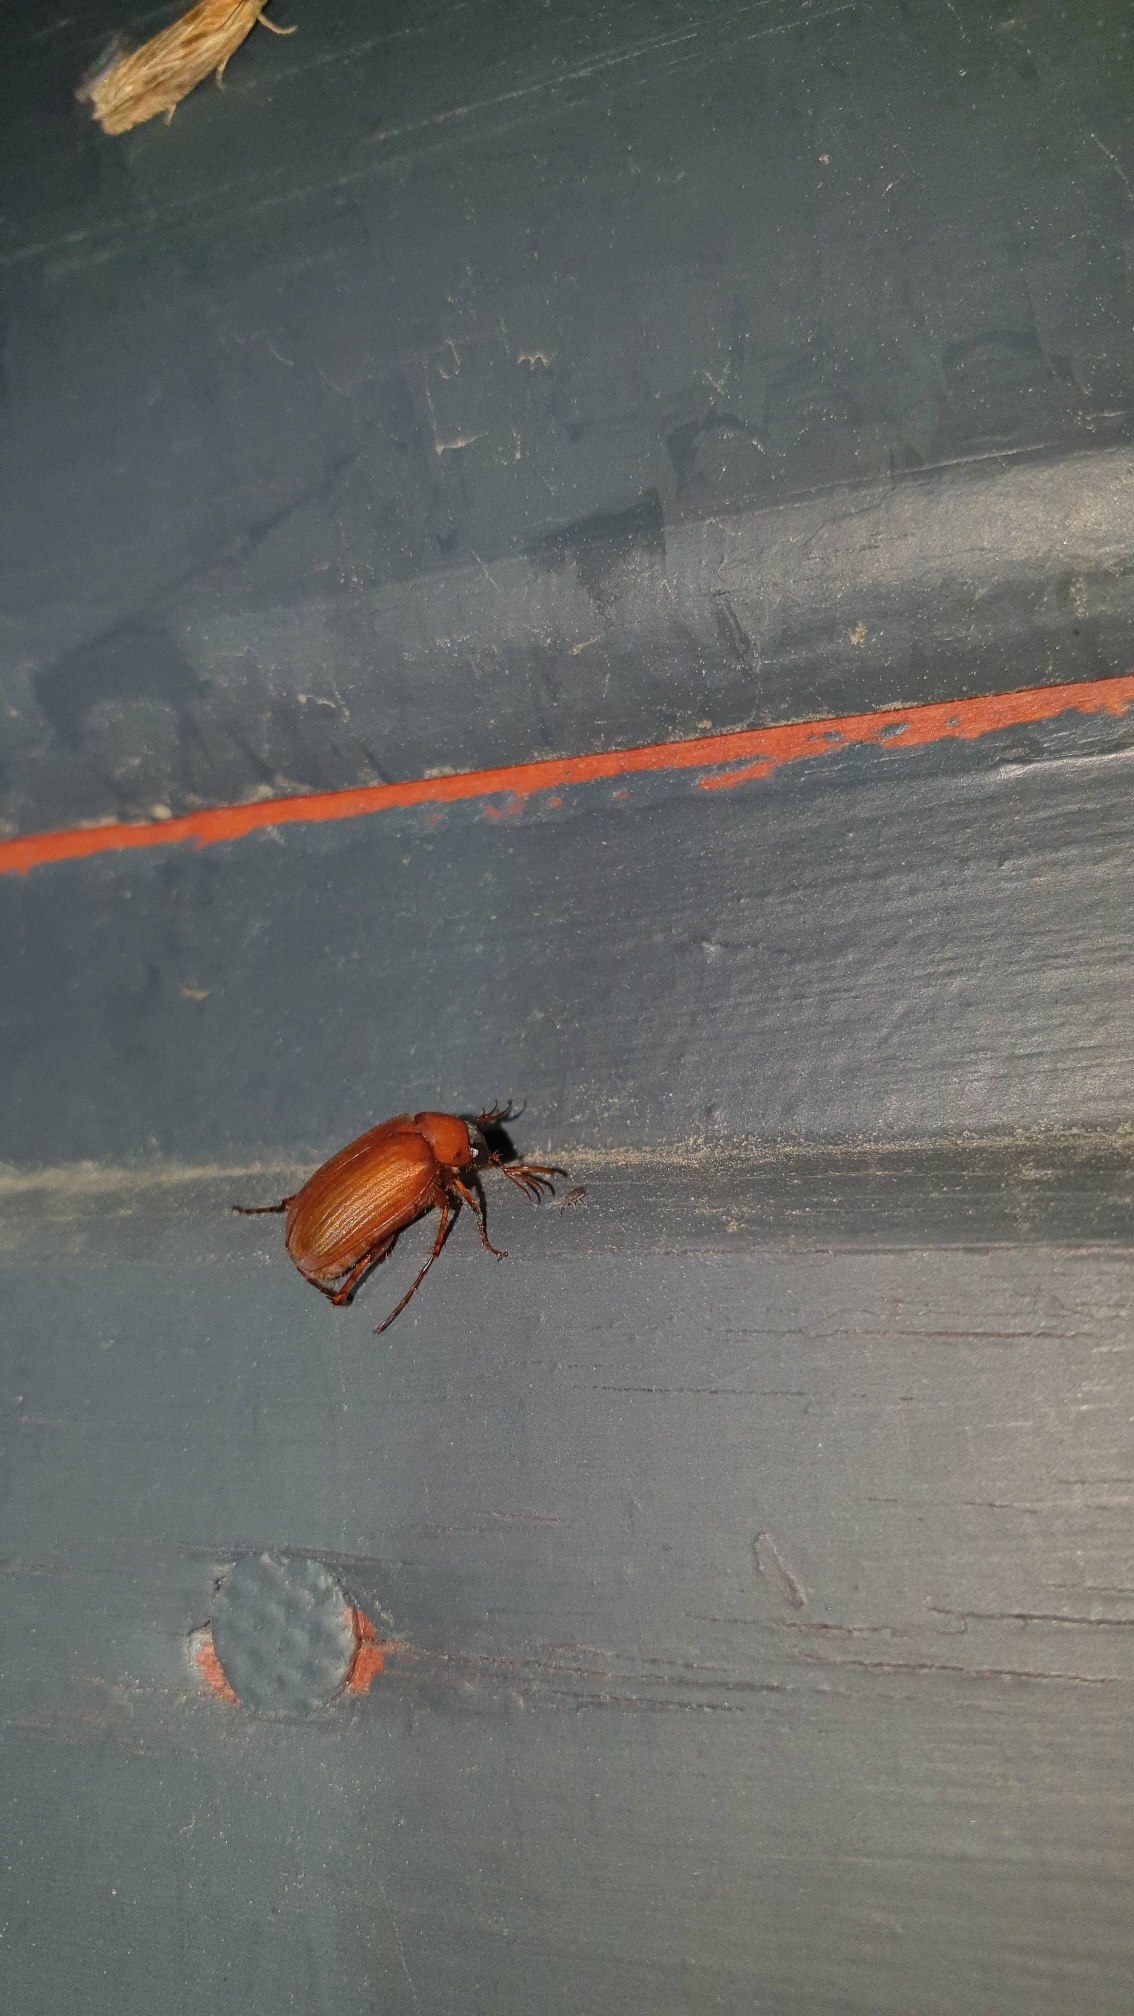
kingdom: Animalia
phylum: Arthropoda
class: Insecta
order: Coleoptera
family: Scarabaeidae
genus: Serica
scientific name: Serica brunnea
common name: Natoldenborre
